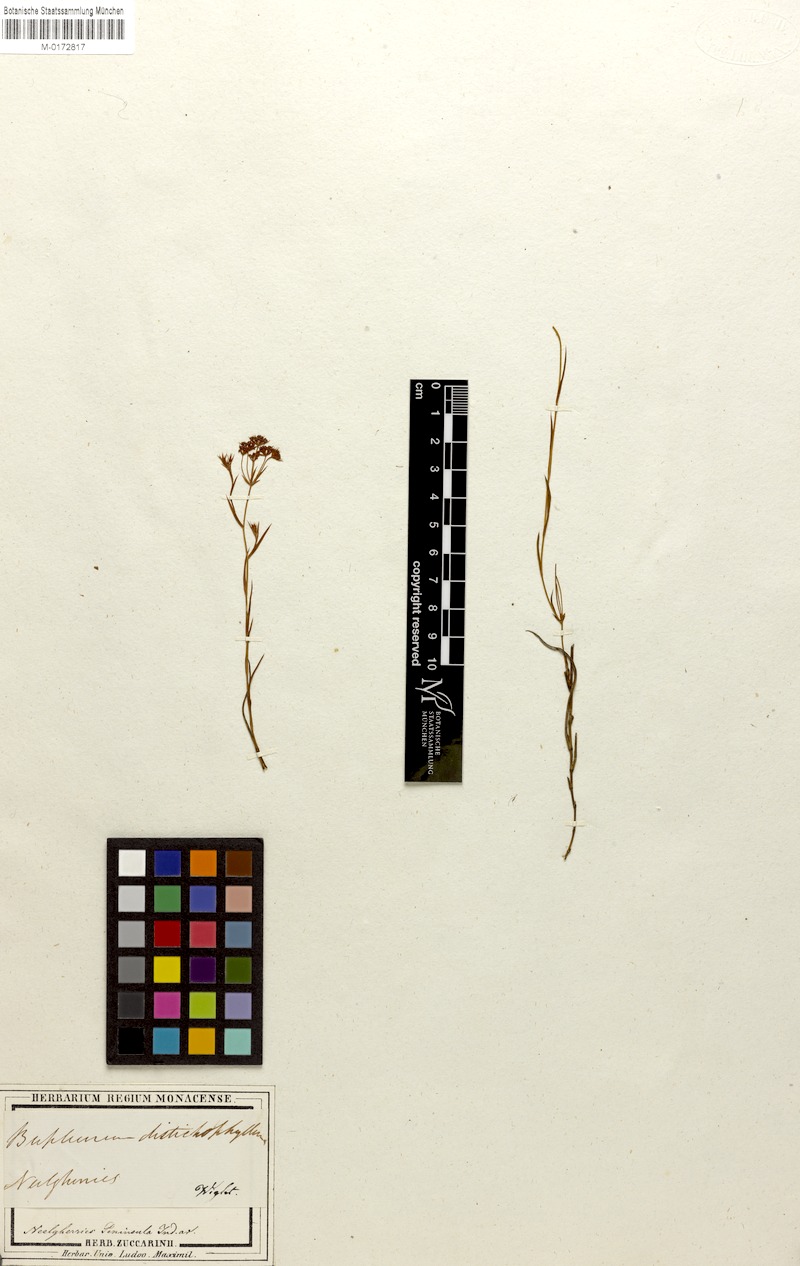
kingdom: Plantae
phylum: Tracheophyta
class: Magnoliopsida
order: Apiales
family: Apiaceae
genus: Bupleurum
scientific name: Bupleurum distichophyllum
